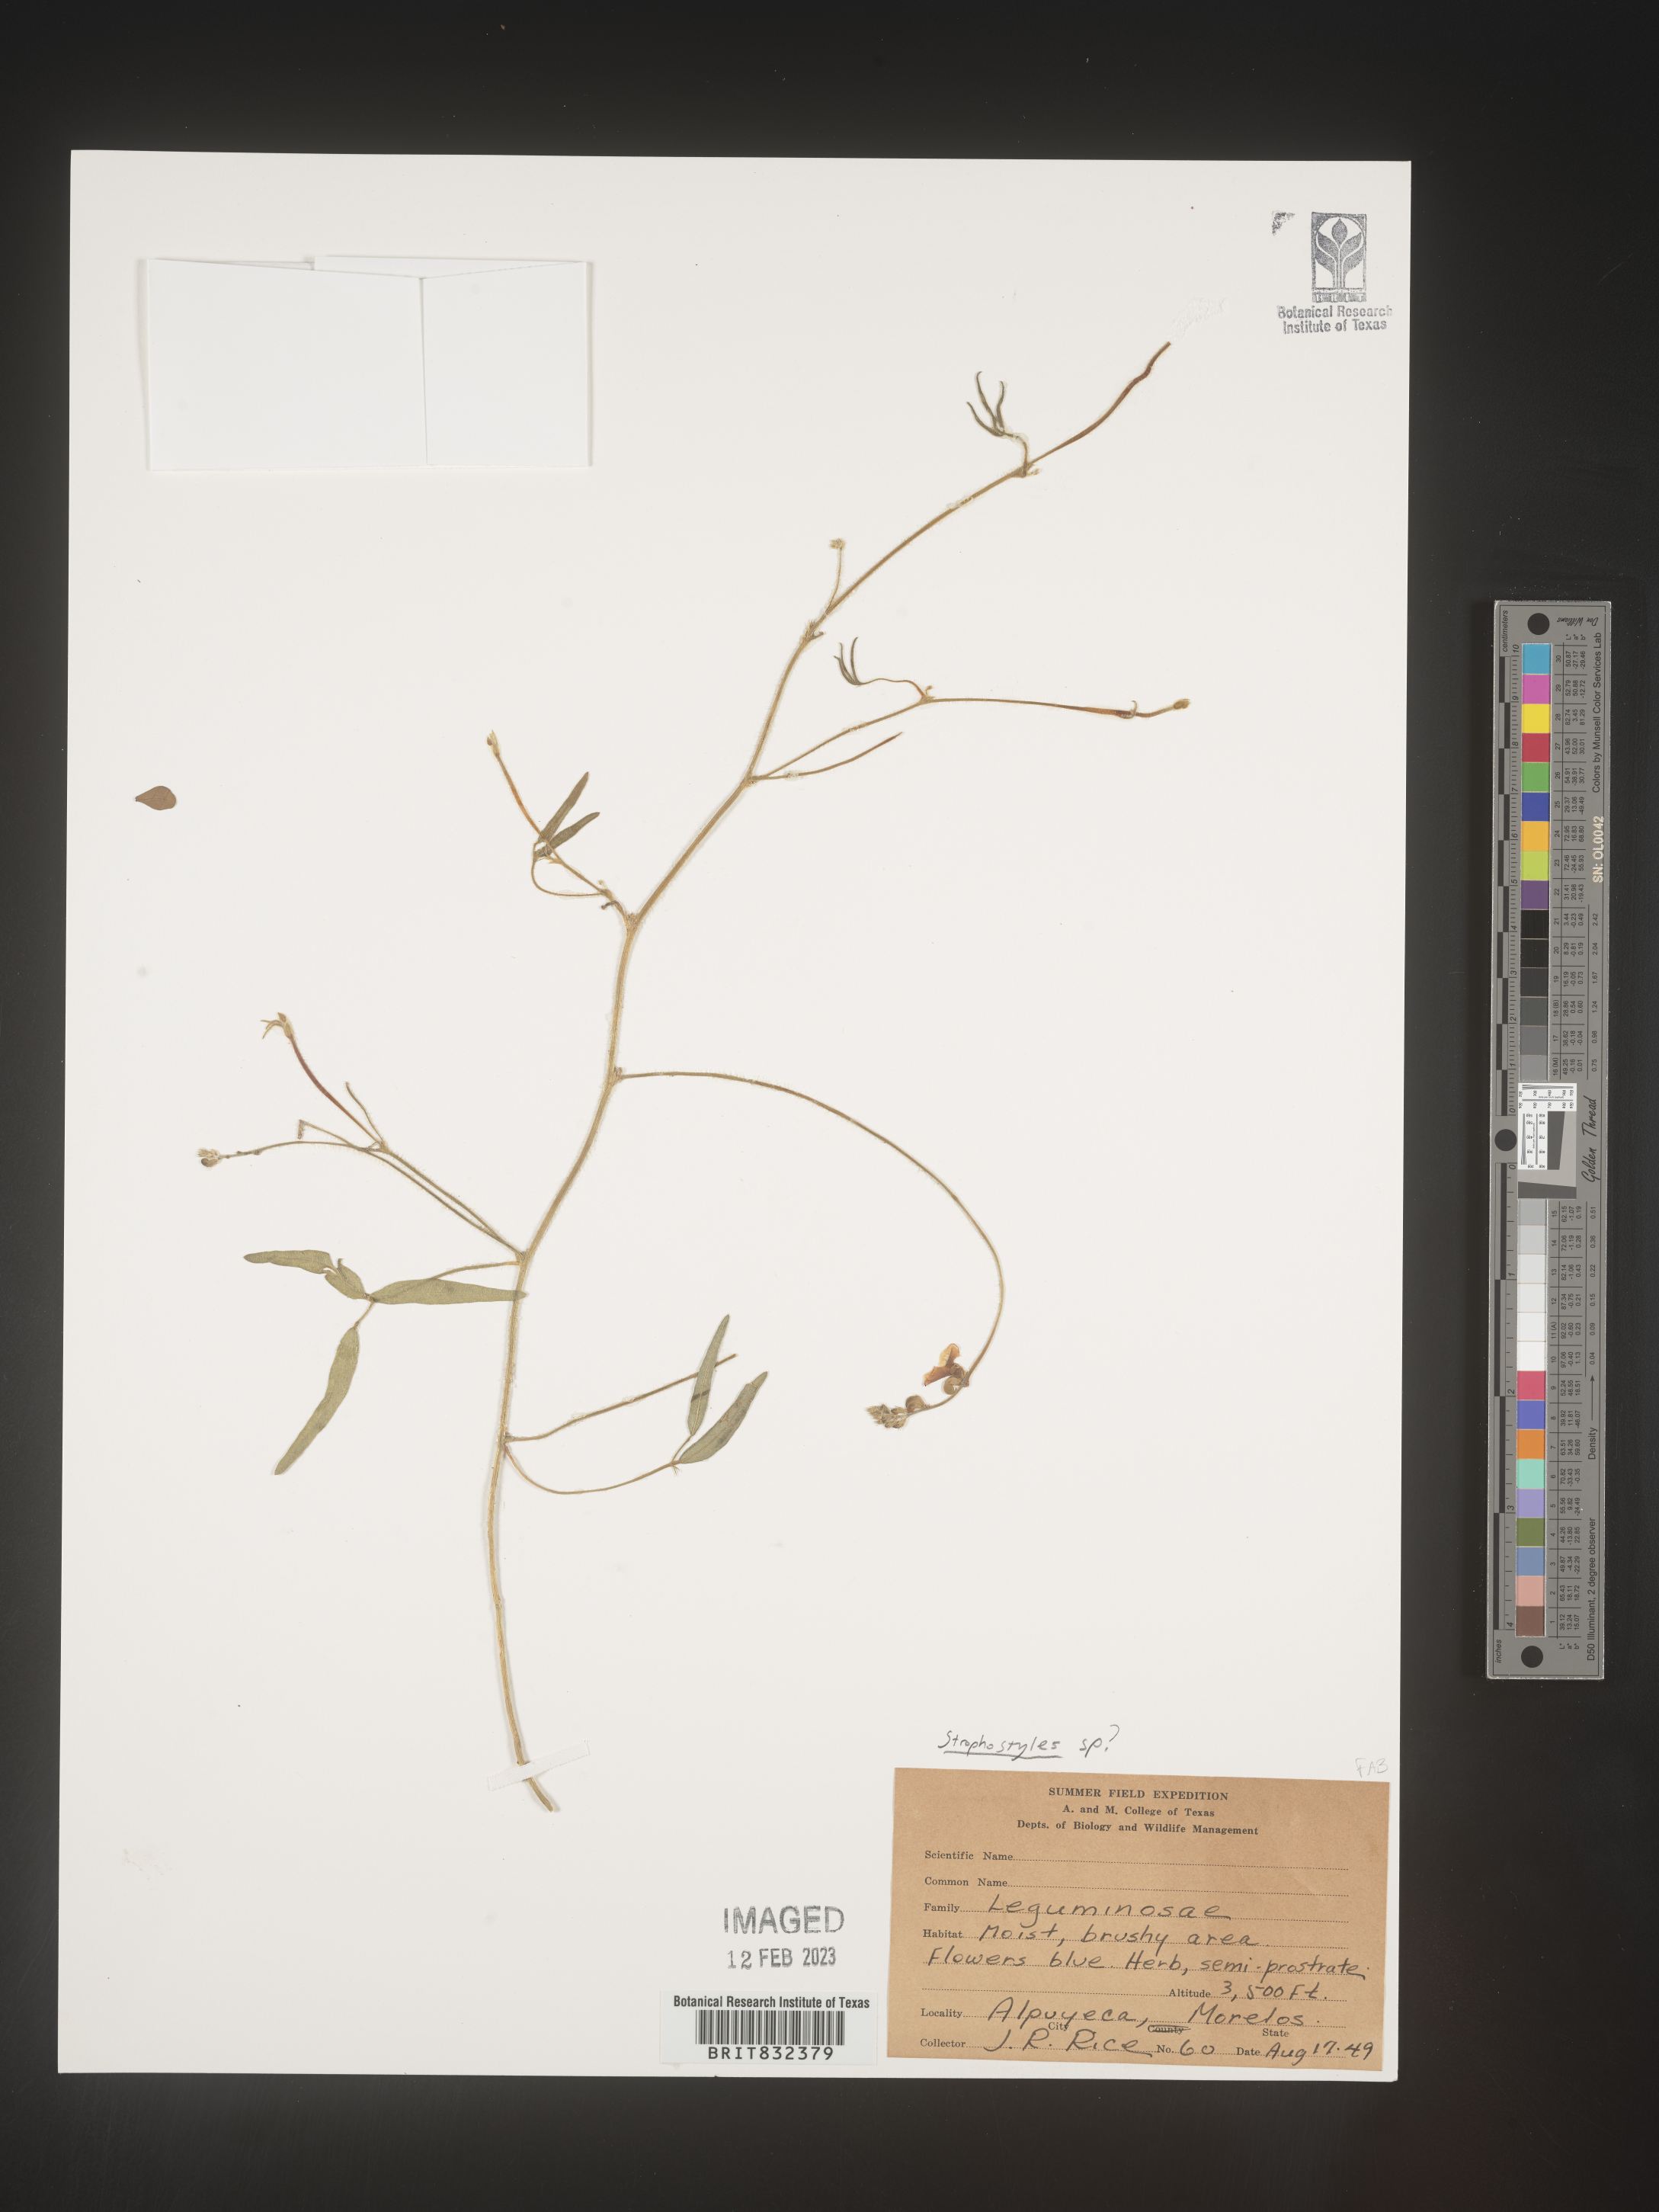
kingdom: Plantae
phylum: Tracheophyta
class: Magnoliopsida
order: Fabales
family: Fabaceae
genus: Strophostyles
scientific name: Strophostyles
